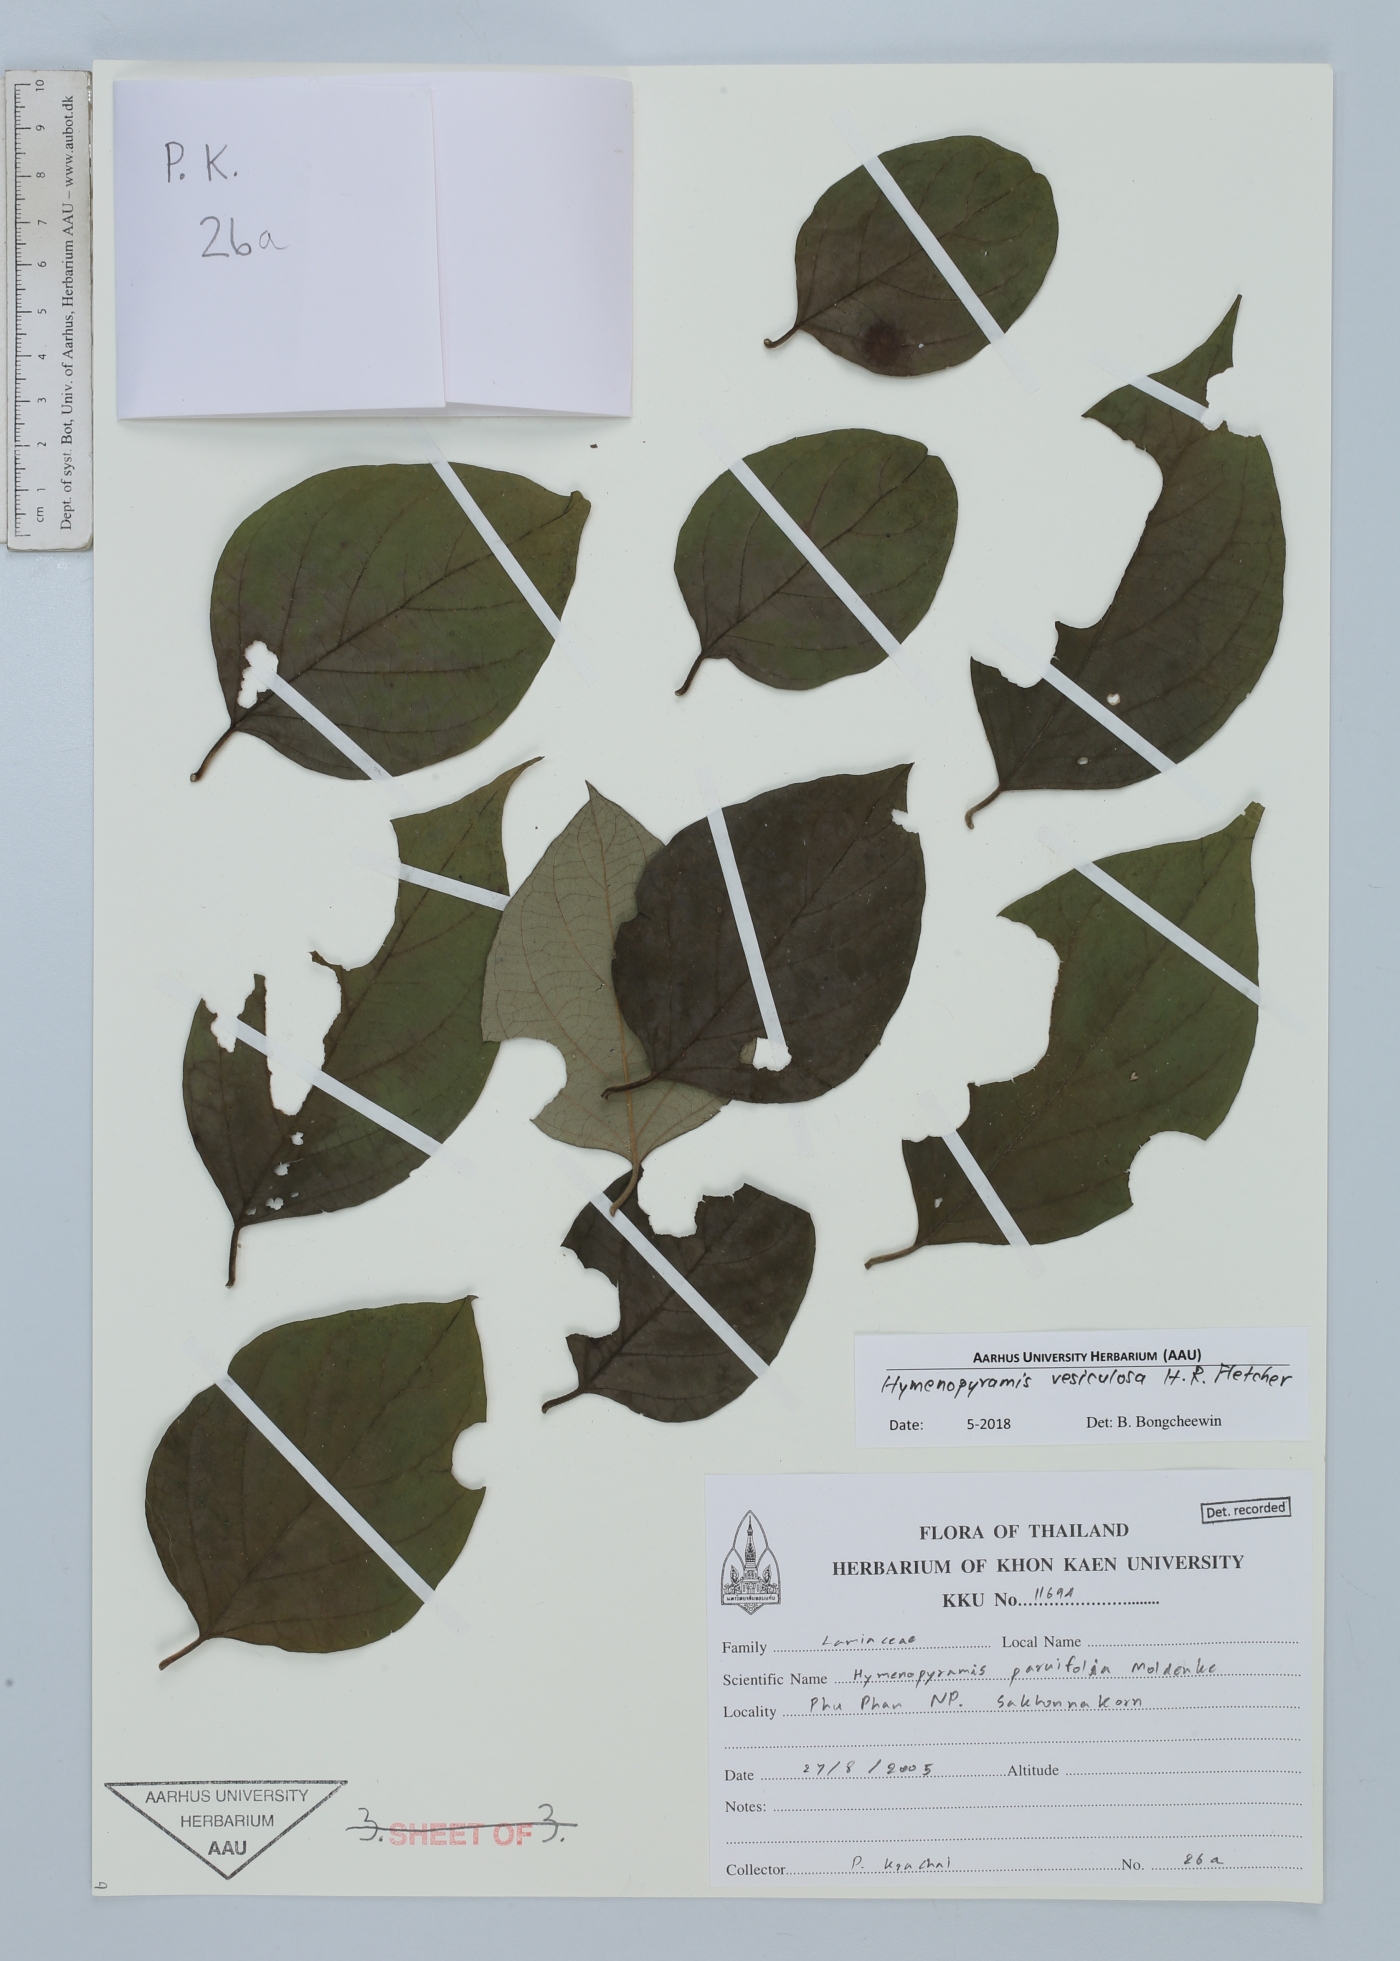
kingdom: Plantae
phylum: Tracheophyta
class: Magnoliopsida
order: Lamiales
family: Lamiaceae
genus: Hymenopyramis
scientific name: Hymenopyramis vesiculosa
